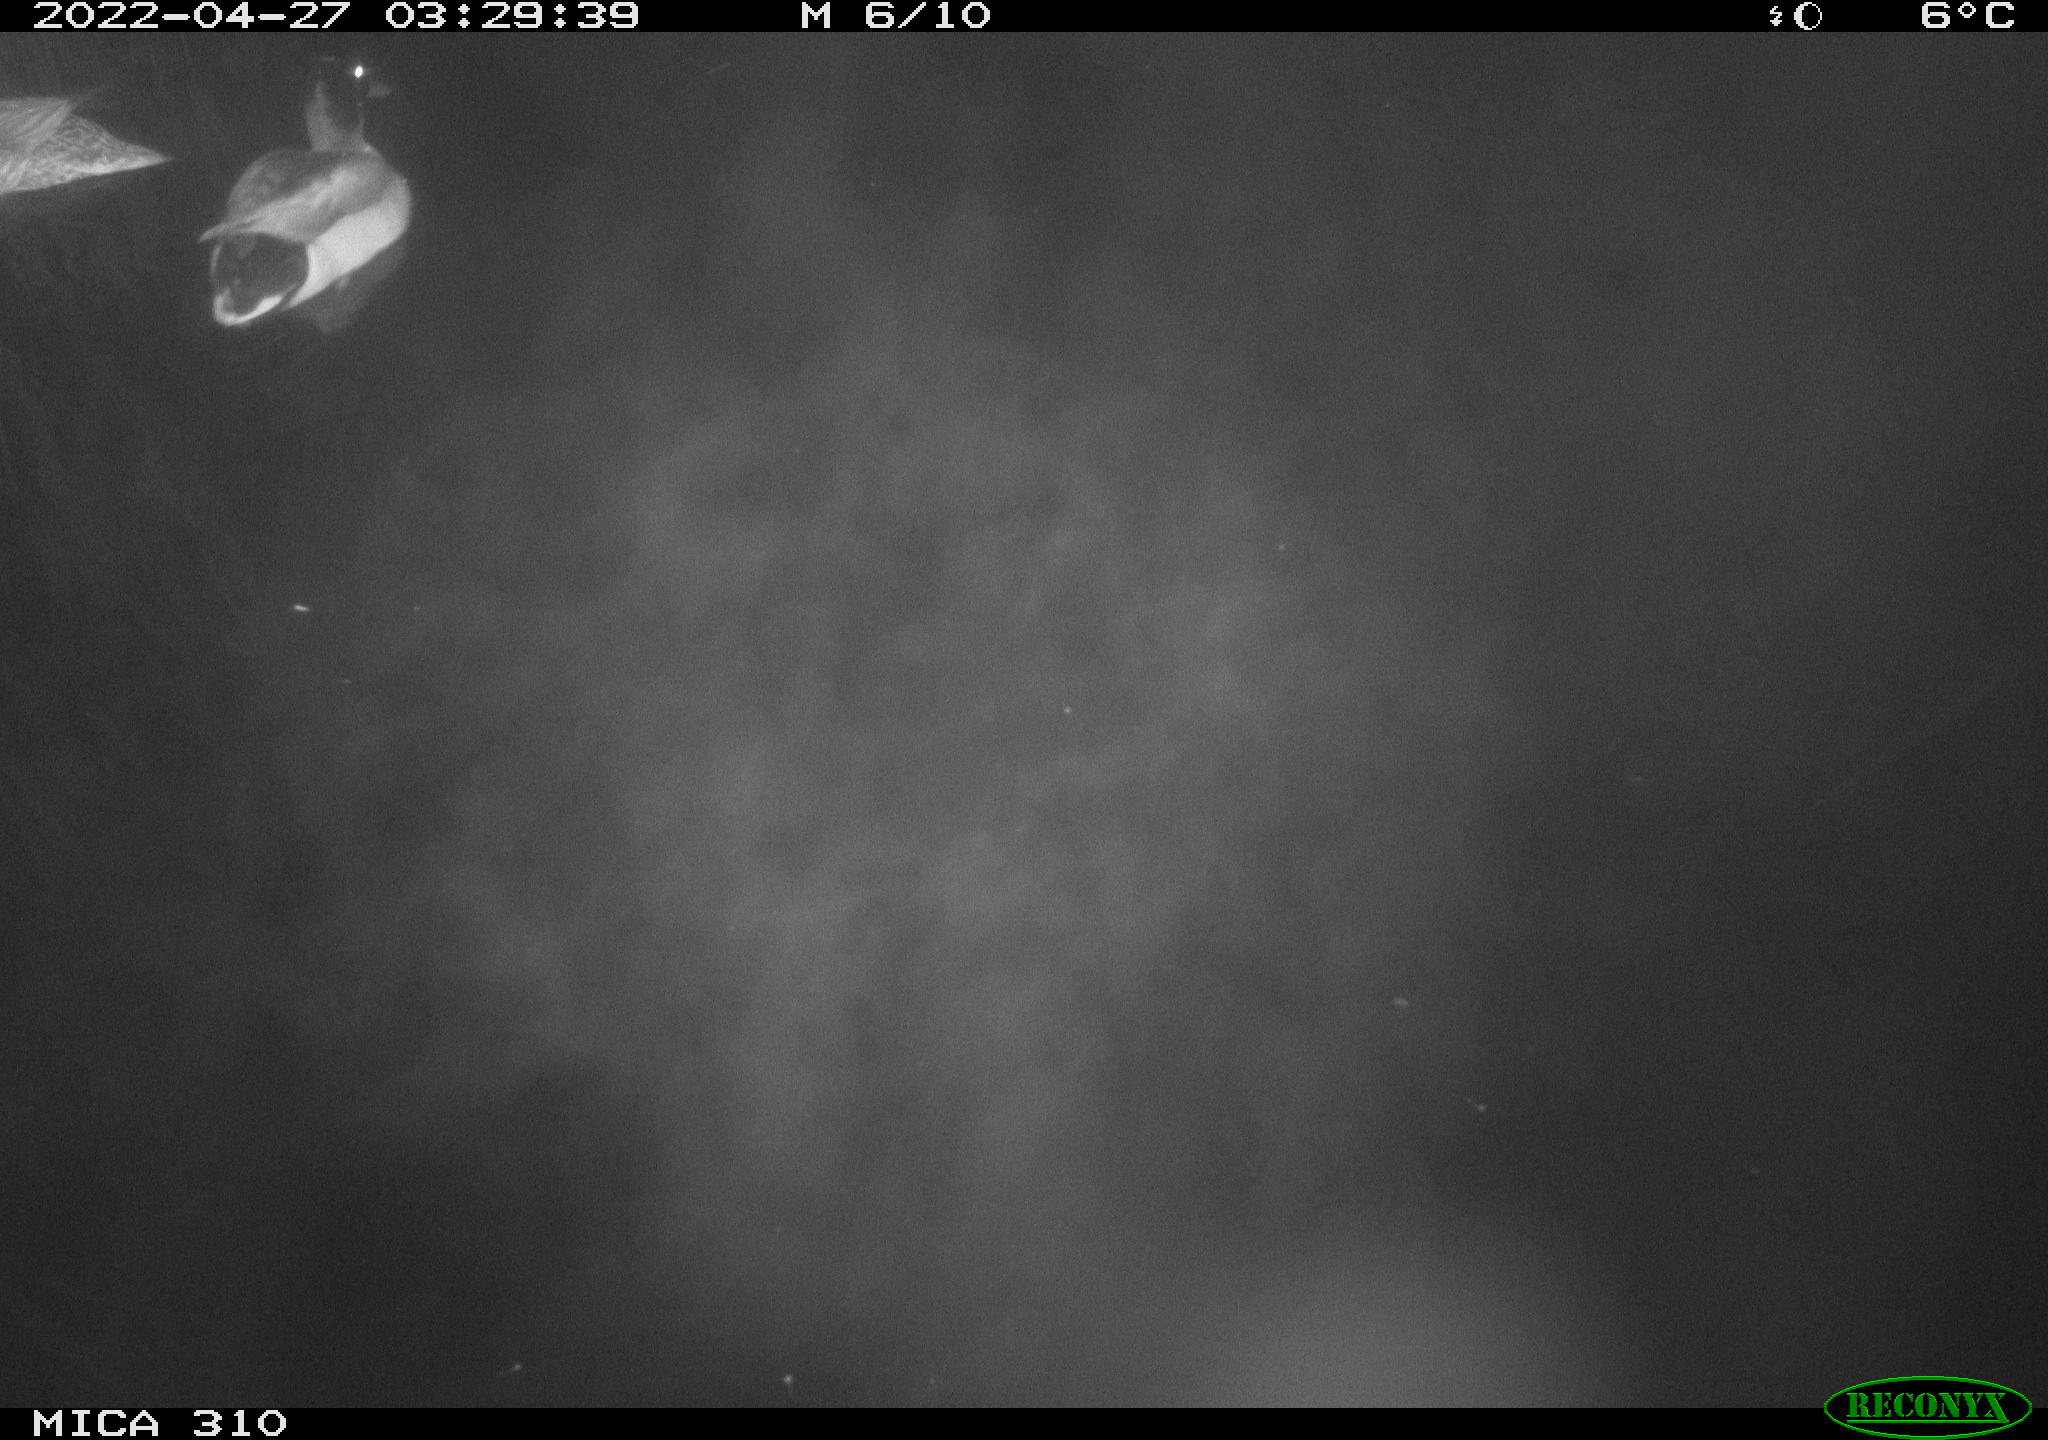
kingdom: Animalia
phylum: Chordata
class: Aves
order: Anseriformes
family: Anatidae
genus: Anas
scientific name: Anas platyrhynchos
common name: Mallard
